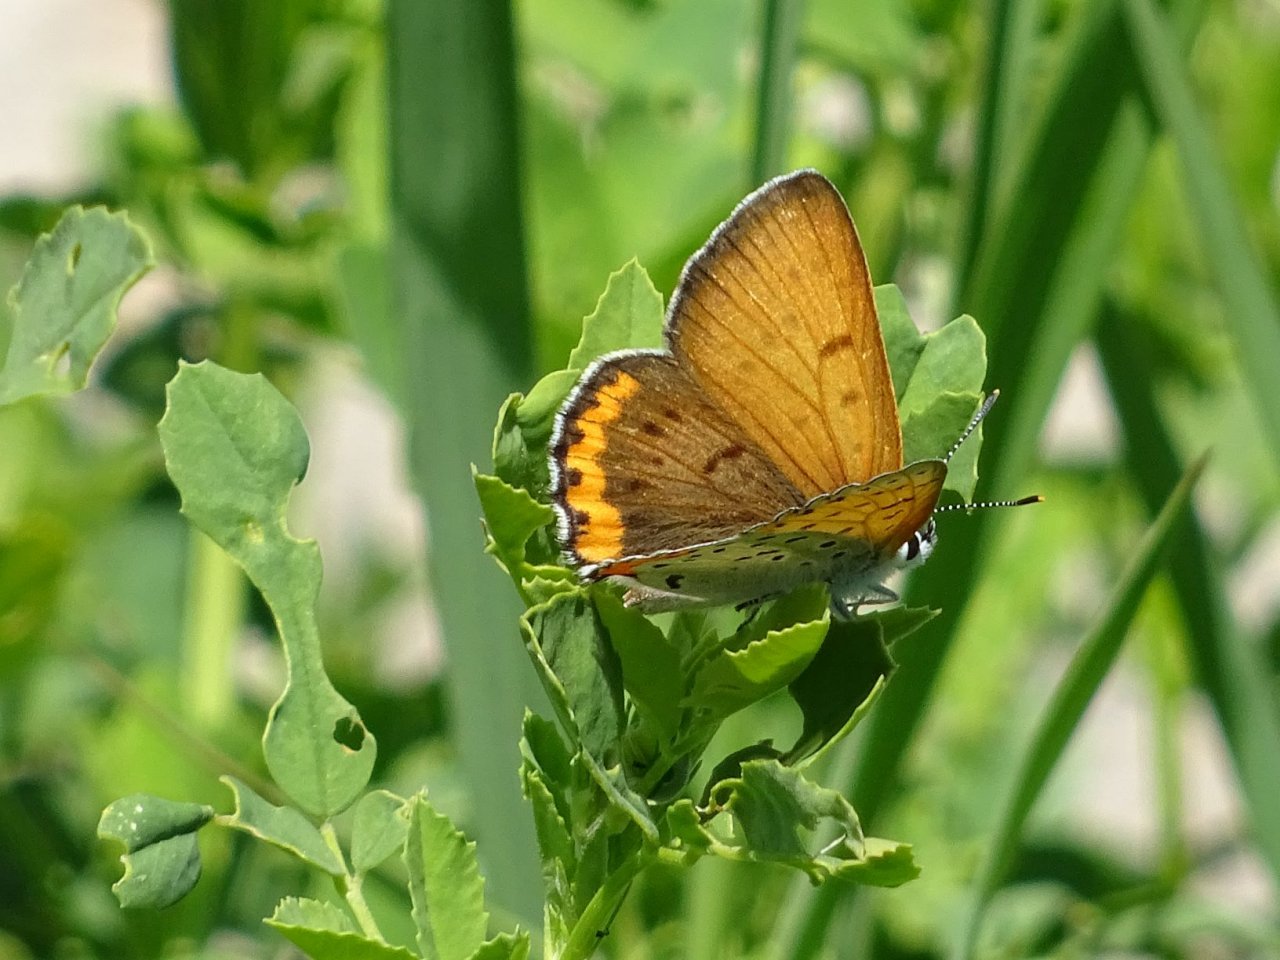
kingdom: Animalia
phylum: Arthropoda
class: Insecta
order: Lepidoptera
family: Sesiidae
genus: Sesia
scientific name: Sesia Lycaena hyllus
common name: Bronze Copper
